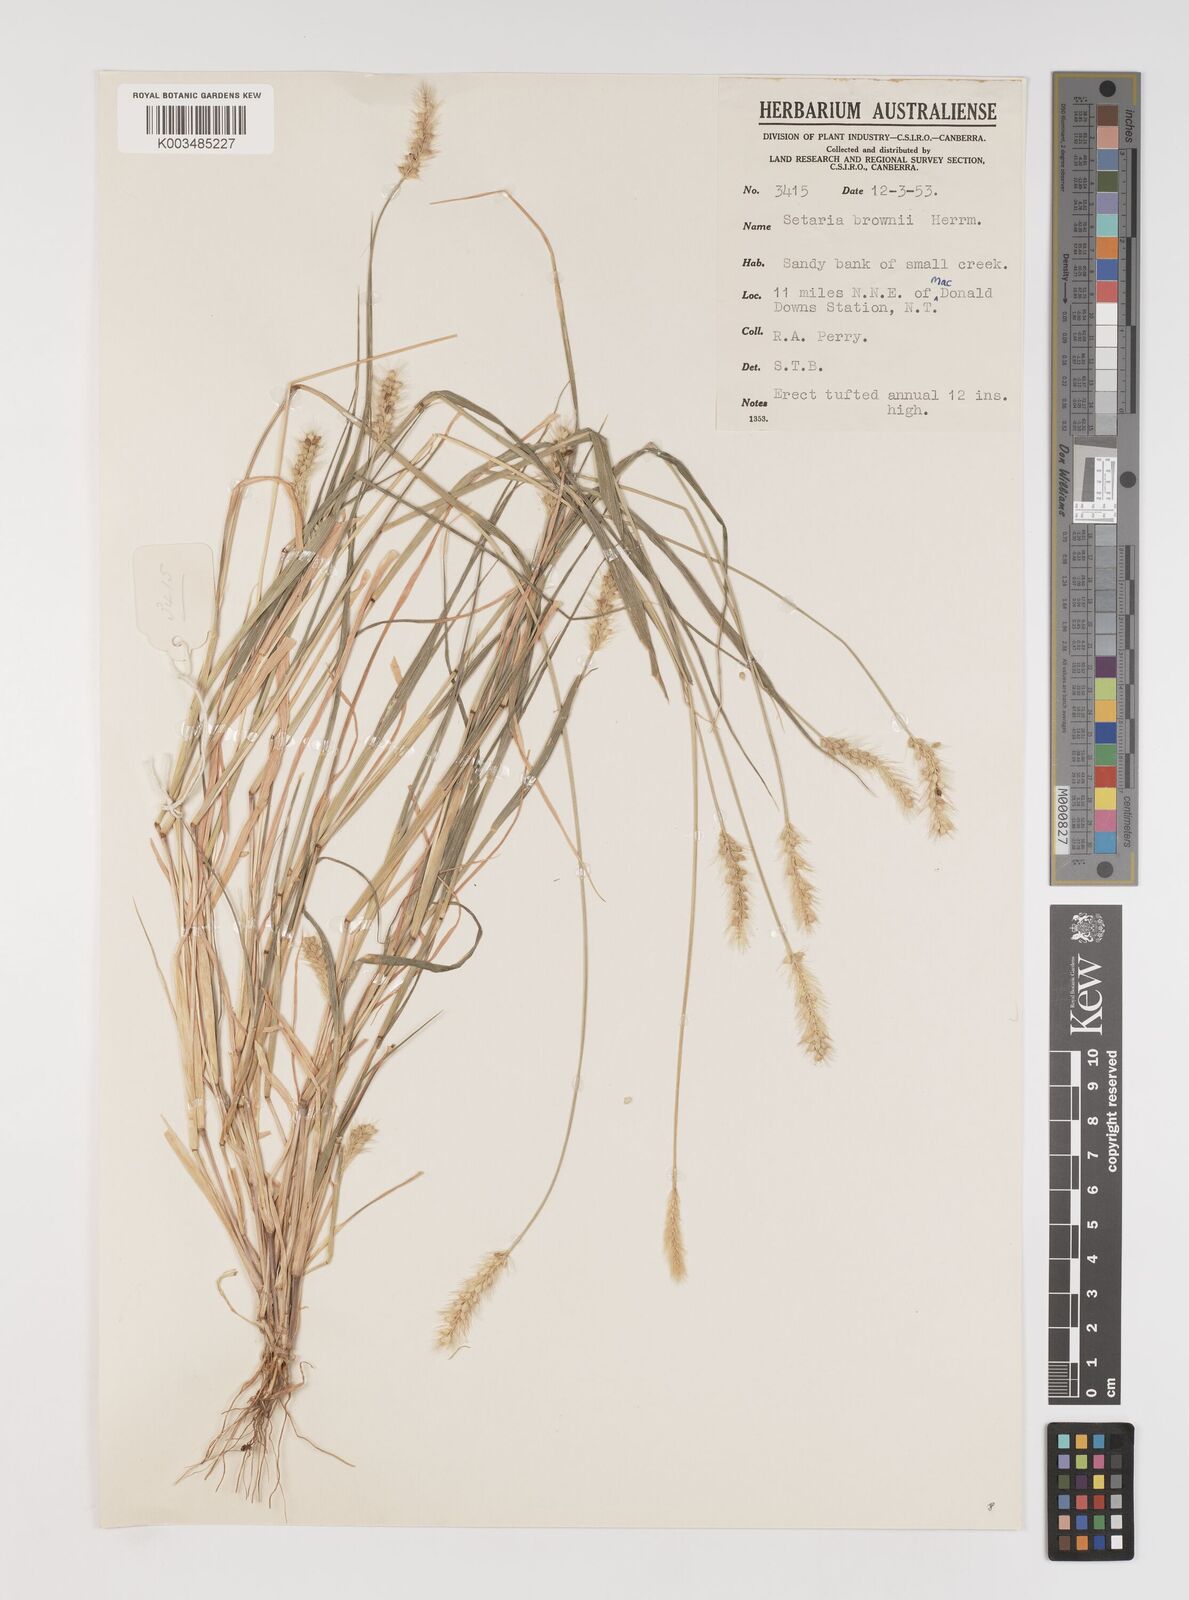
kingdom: Plantae
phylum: Tracheophyta
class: Liliopsida
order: Poales
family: Poaceae
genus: Setaria
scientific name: Setaria surgens
